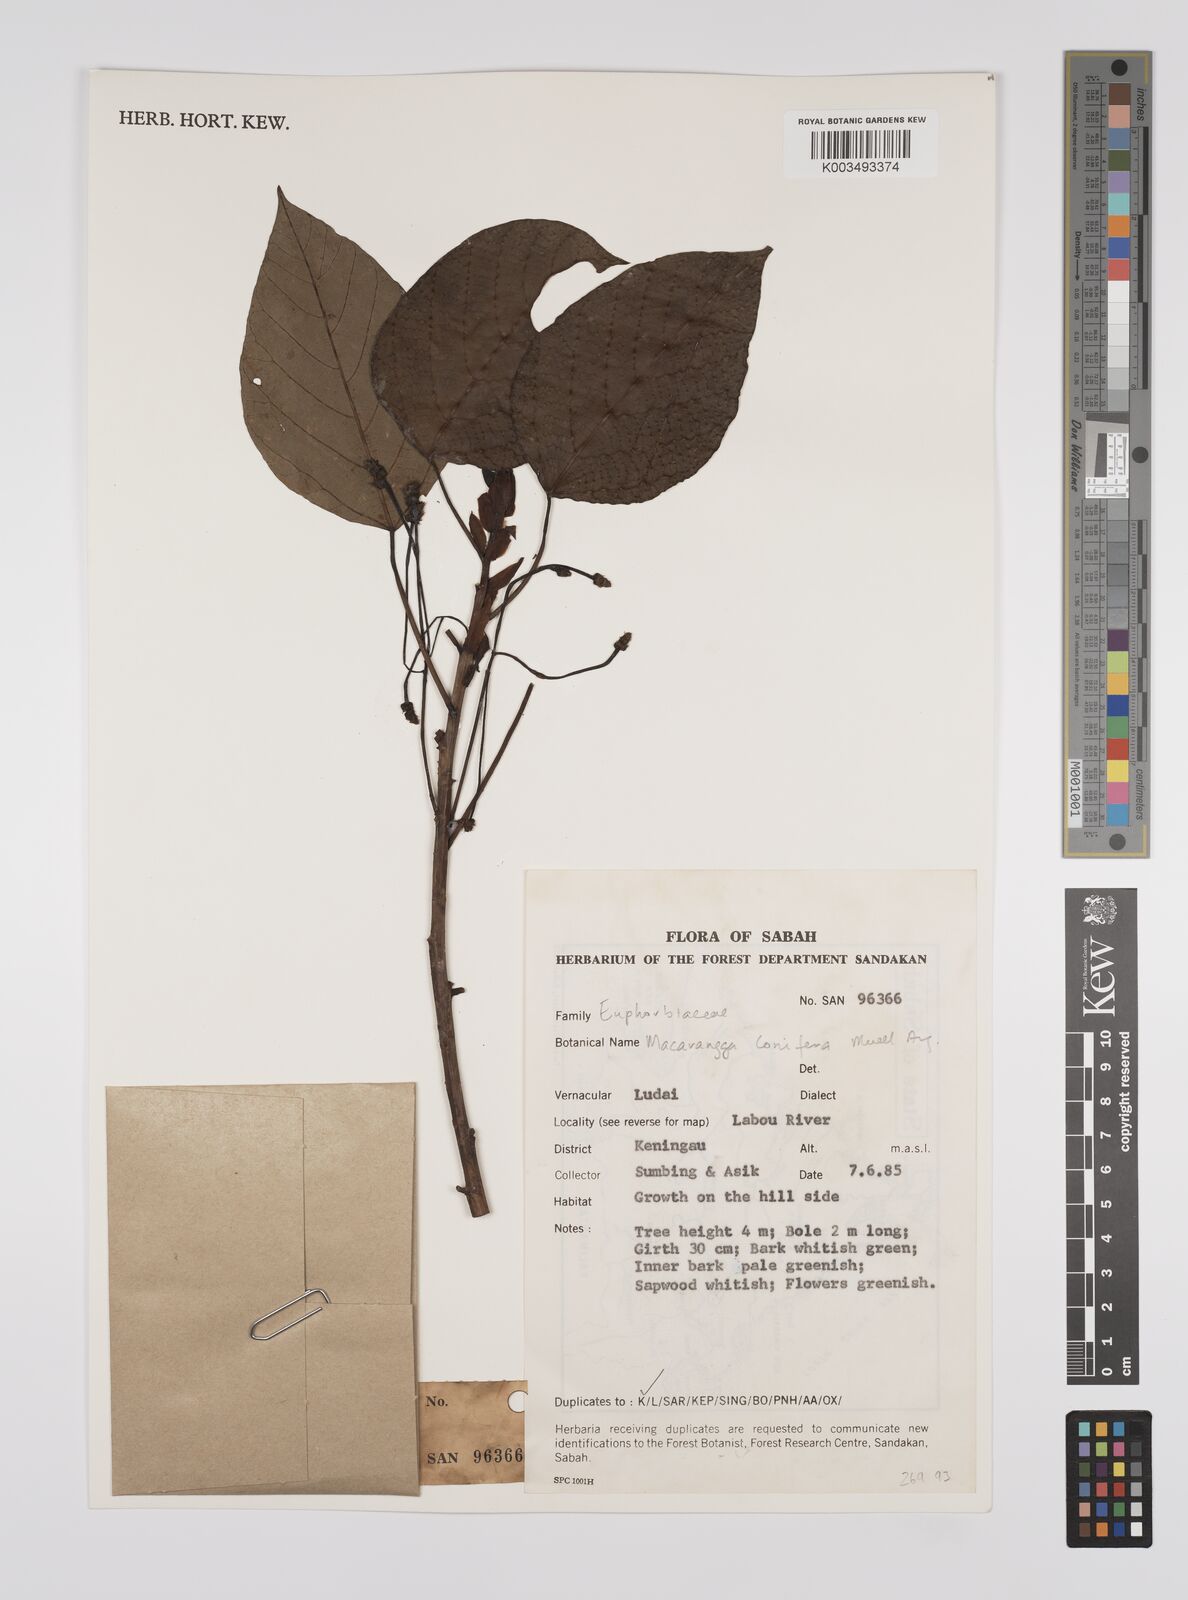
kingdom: Plantae
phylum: Tracheophyta
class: Magnoliopsida
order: Malpighiales
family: Euphorbiaceae
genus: Macaranga
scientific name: Macaranga conifera
